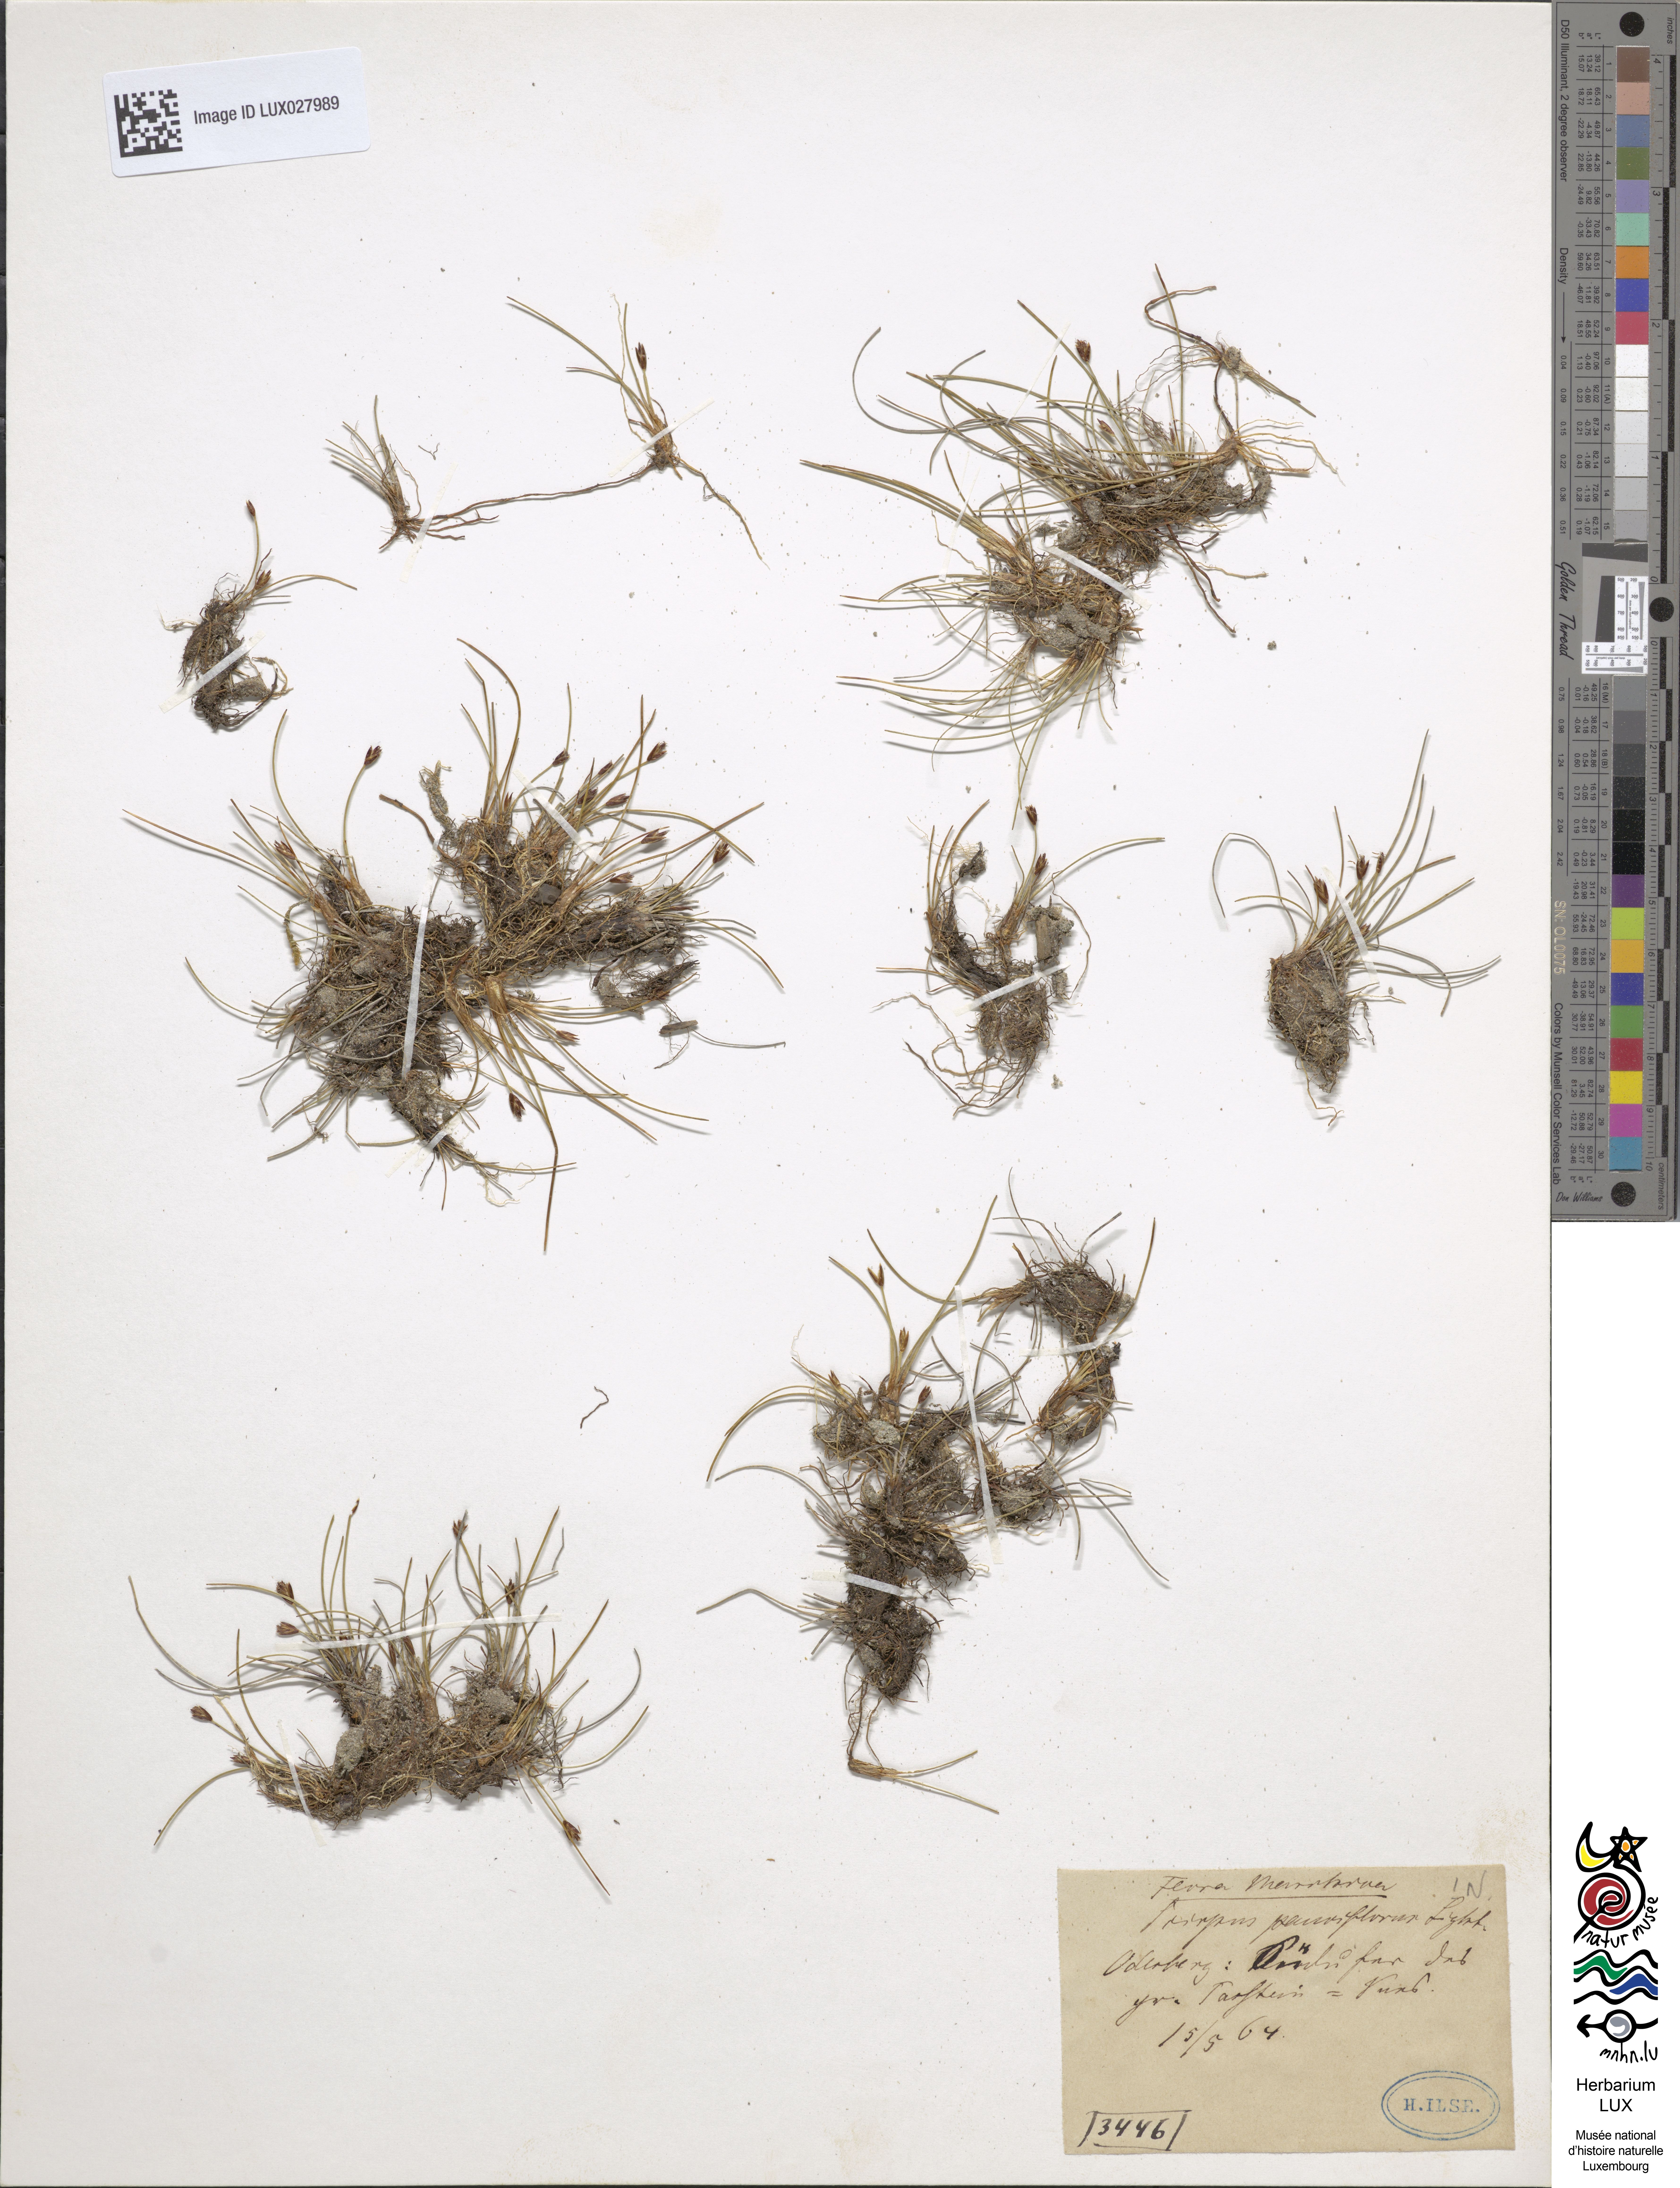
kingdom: Plantae
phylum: Tracheophyta
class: Liliopsida
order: Poales
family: Cyperaceae
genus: Eleocharis
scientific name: Eleocharis quinqueflora
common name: Few-flowered spike-rush
